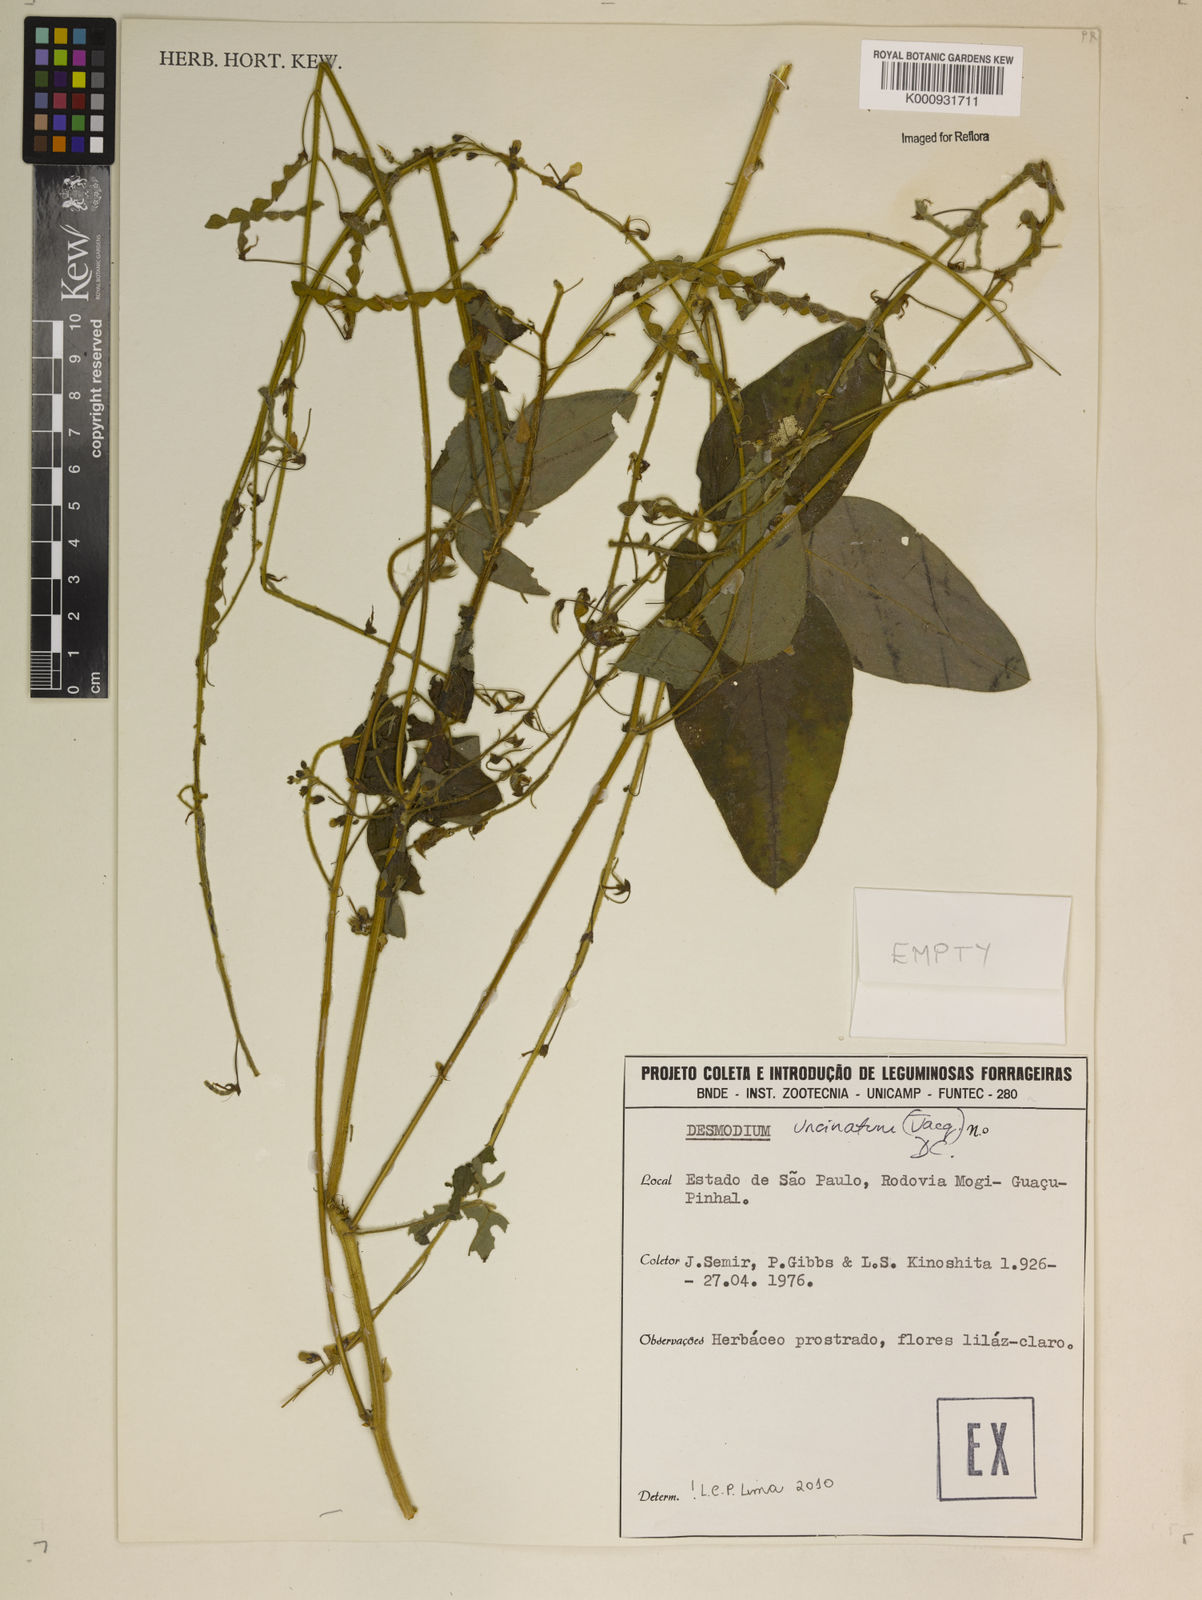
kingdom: Plantae
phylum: Tracheophyta
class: Magnoliopsida
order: Fabales
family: Fabaceae
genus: Desmodium
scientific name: Desmodium uncinatum
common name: Silverleaf desmodium
